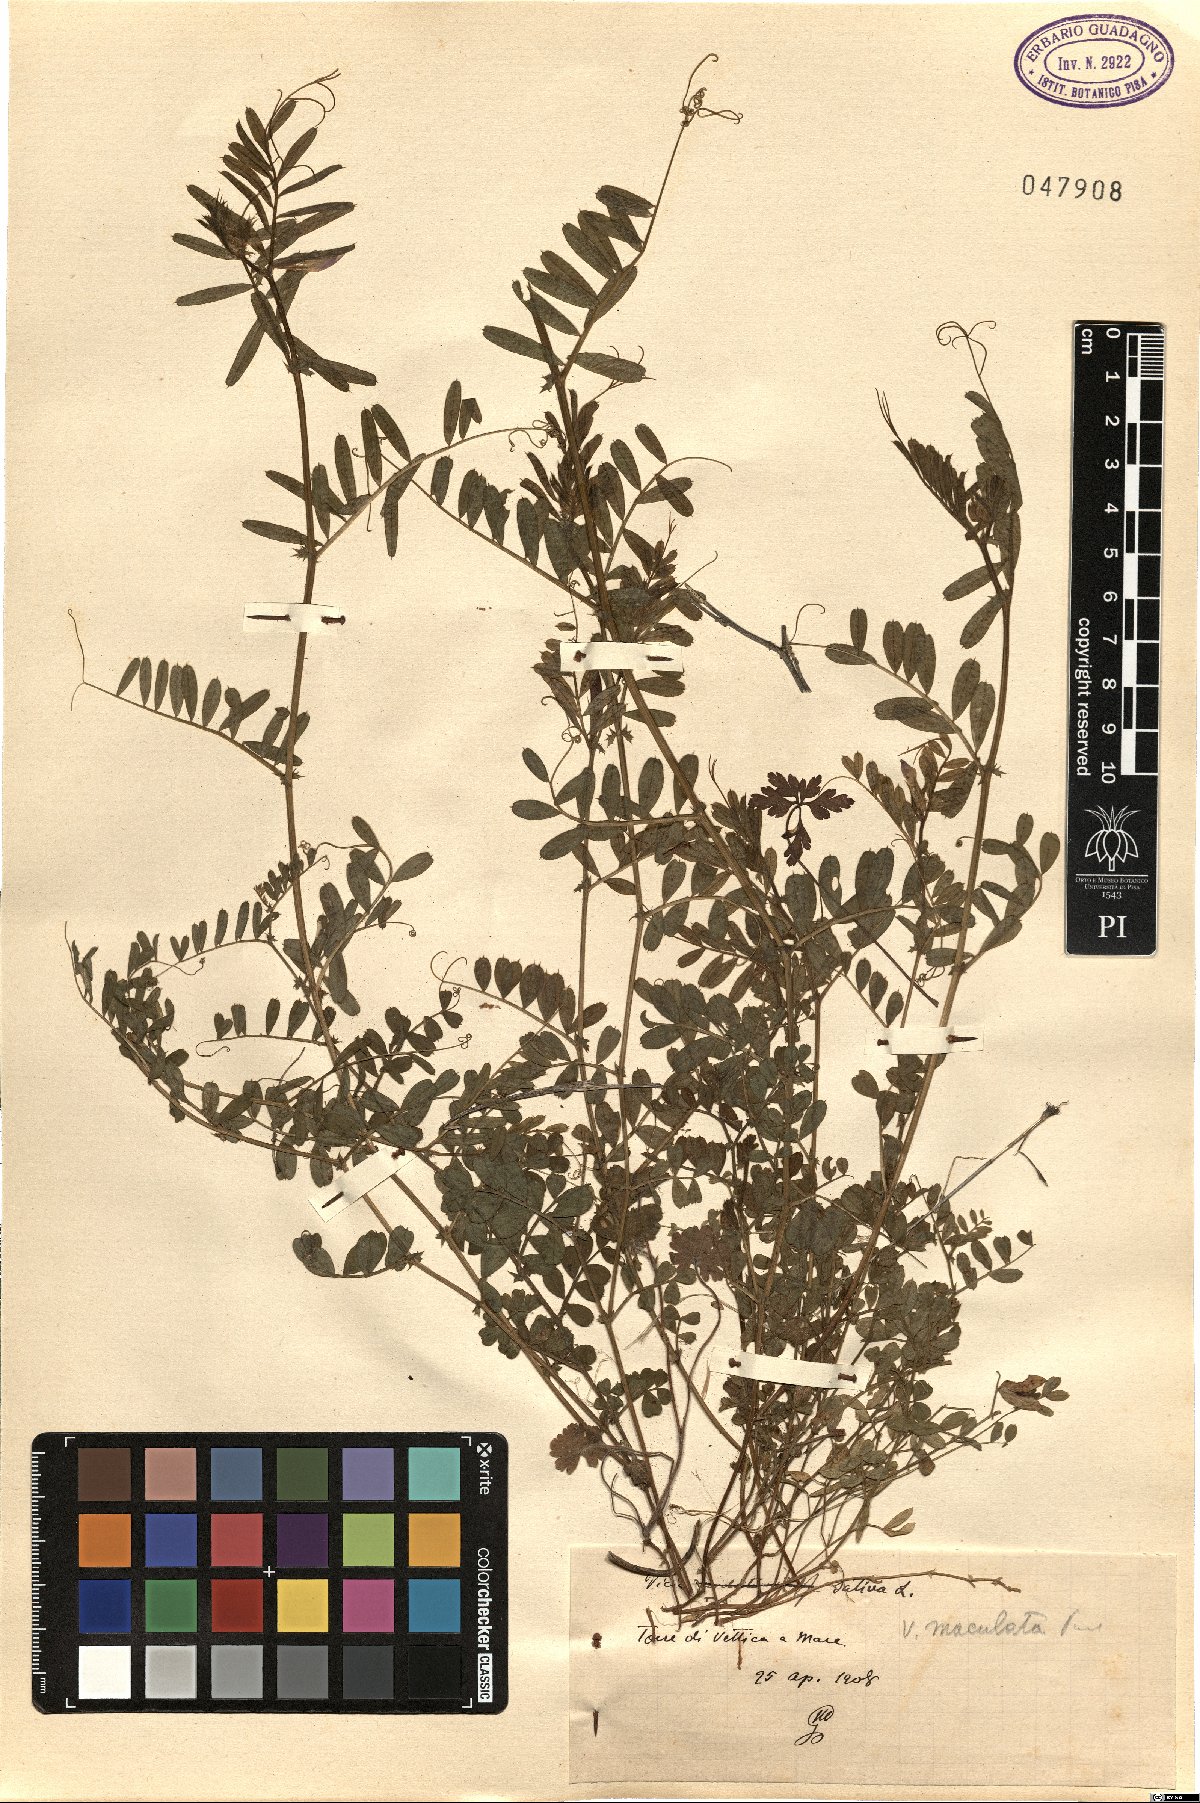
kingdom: Plantae
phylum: Tracheophyta
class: Magnoliopsida
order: Fabales
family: Fabaceae
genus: Vicia
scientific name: Vicia sativa
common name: Garden vetch
